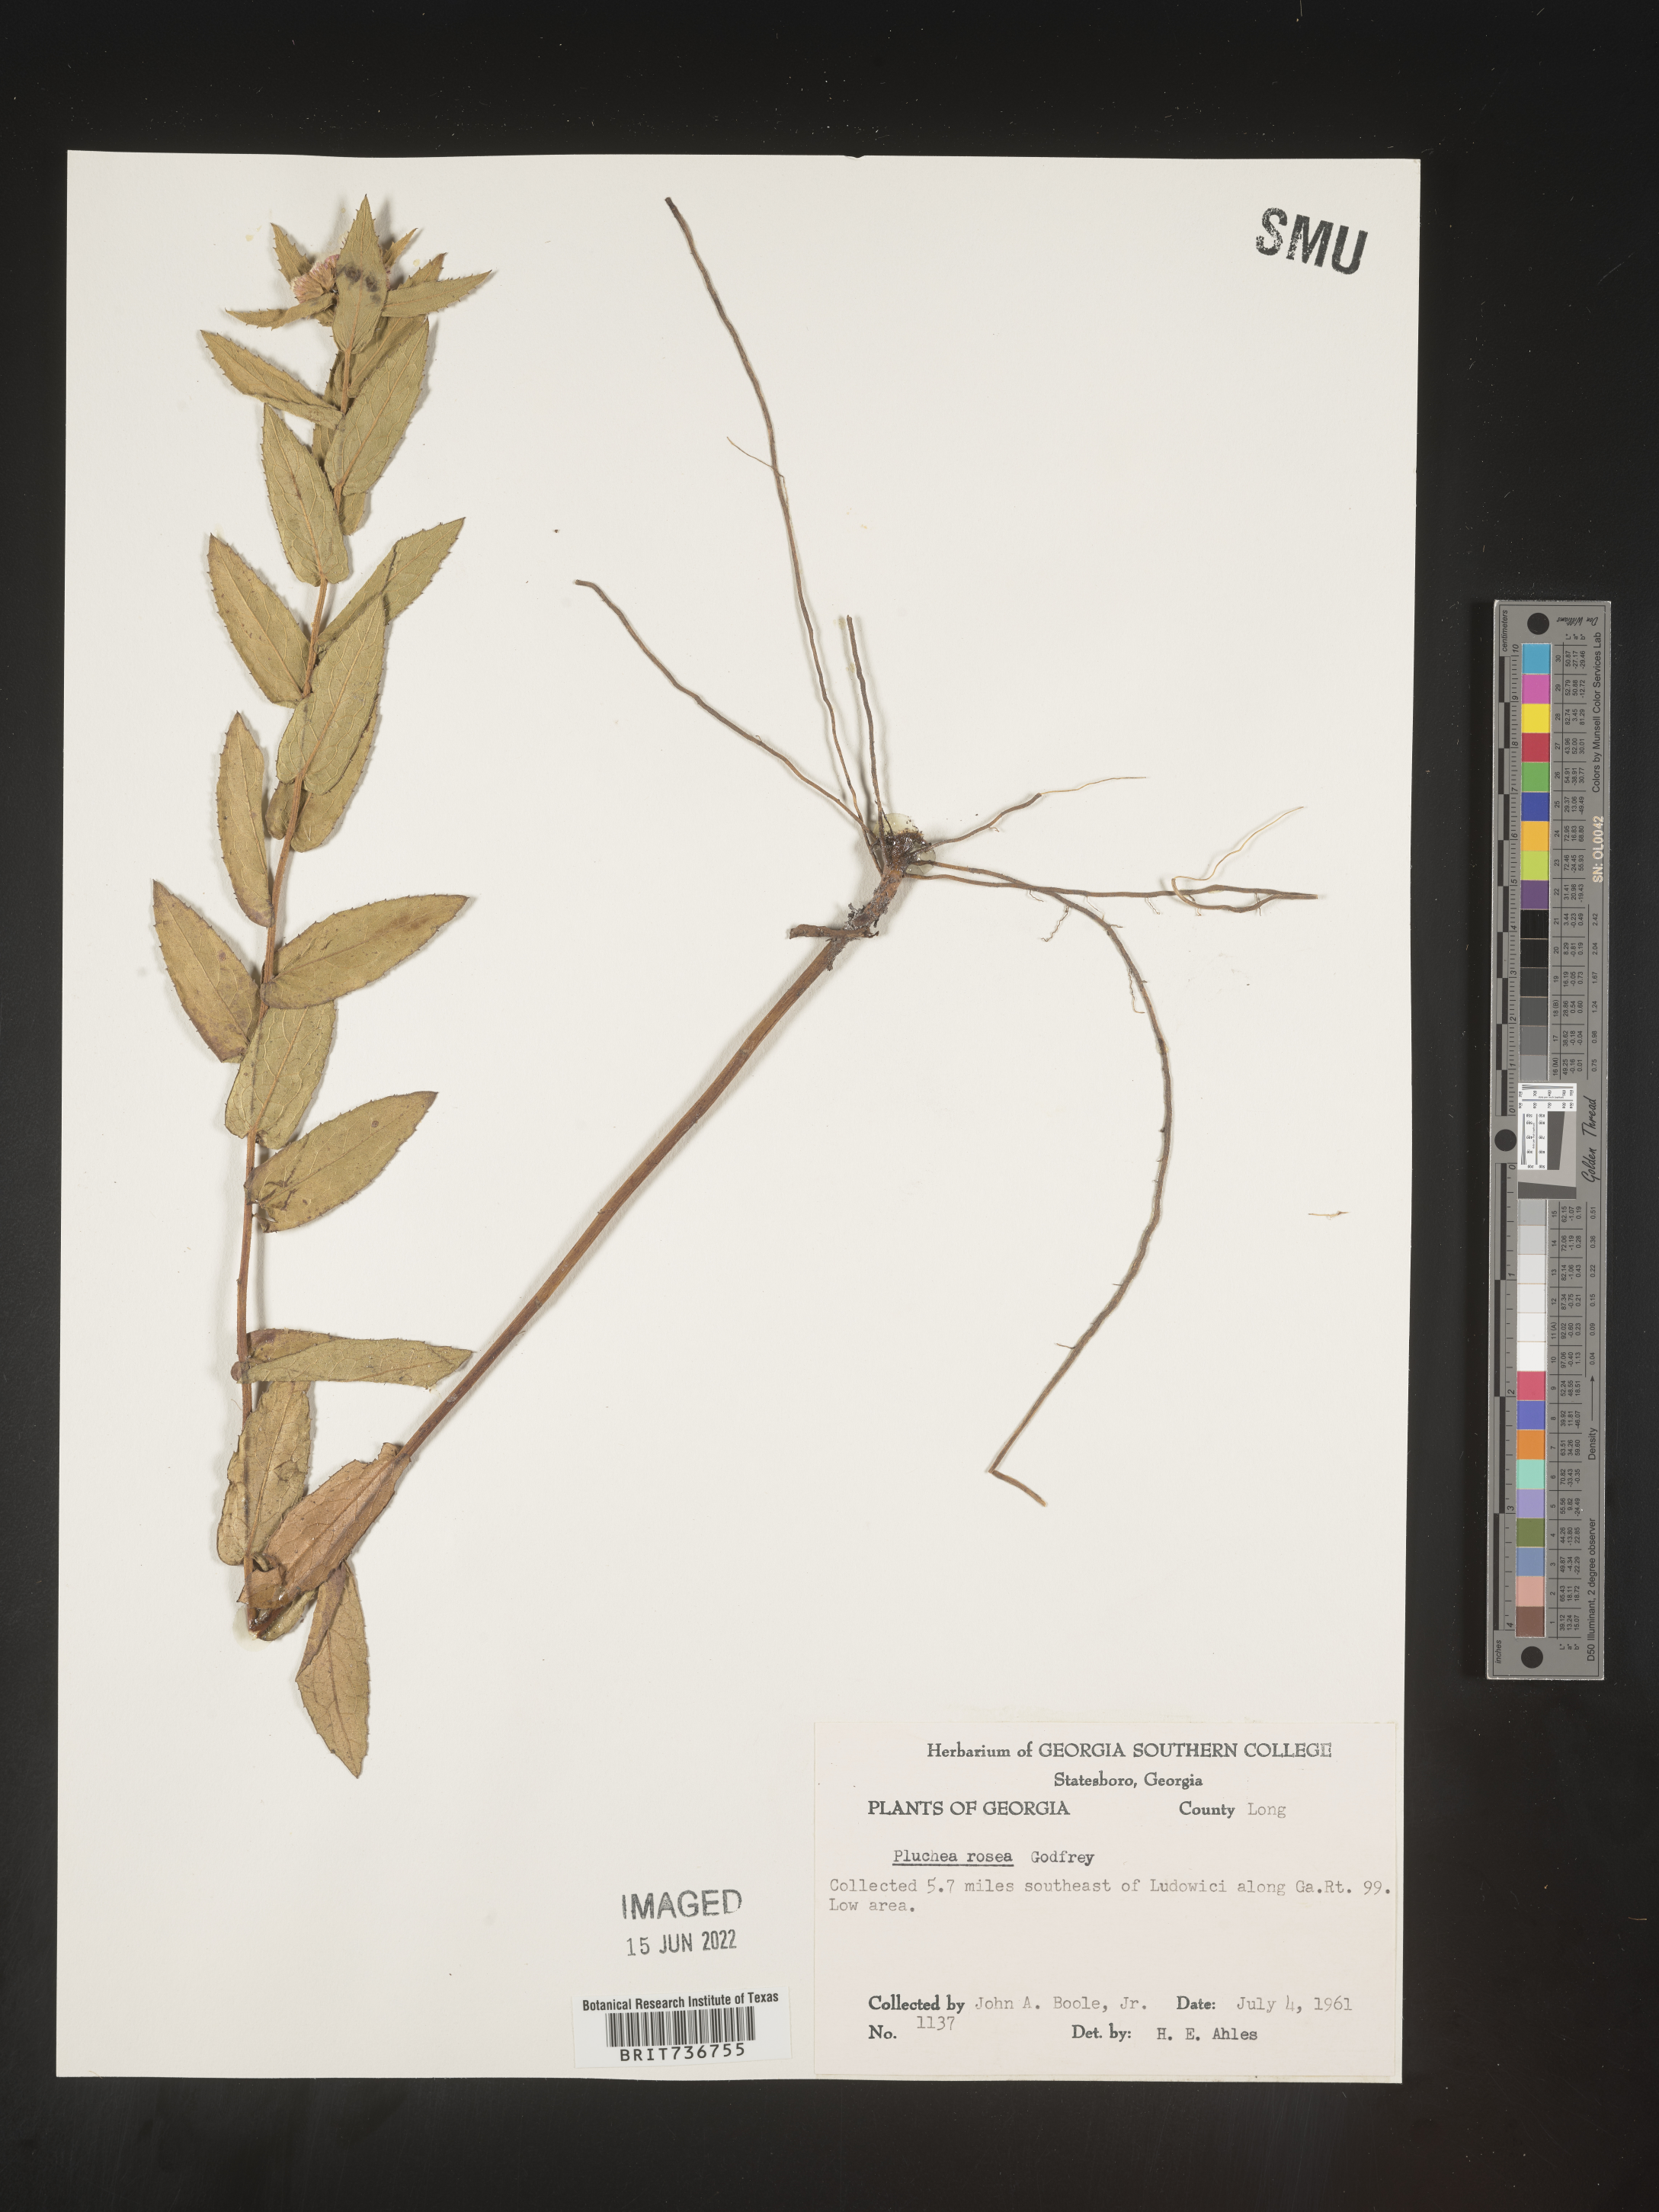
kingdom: Plantae
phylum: Tracheophyta
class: Magnoliopsida
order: Asterales
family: Asteraceae
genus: Pluchea
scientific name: Pluchea baccharis
